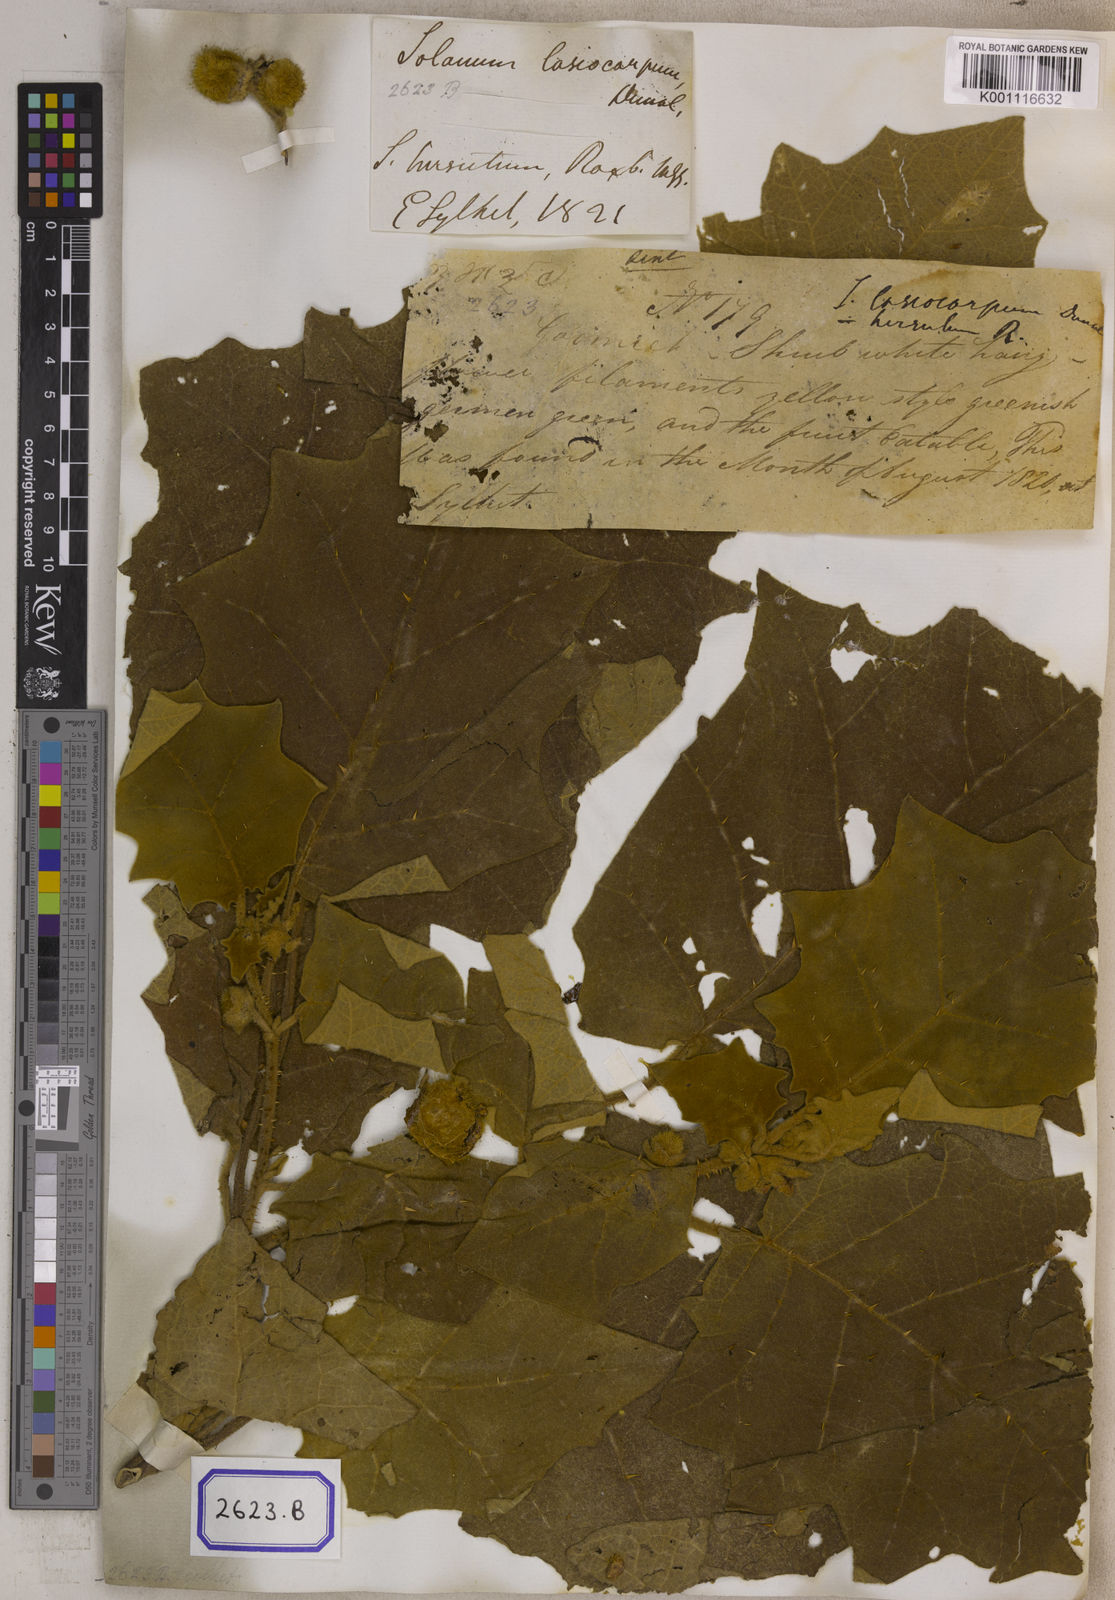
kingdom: Plantae
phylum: Tracheophyta
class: Magnoliopsida
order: Solanales
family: Solanaceae
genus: Solanum
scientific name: Solanum lasiocarpum
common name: Indian nightshade
